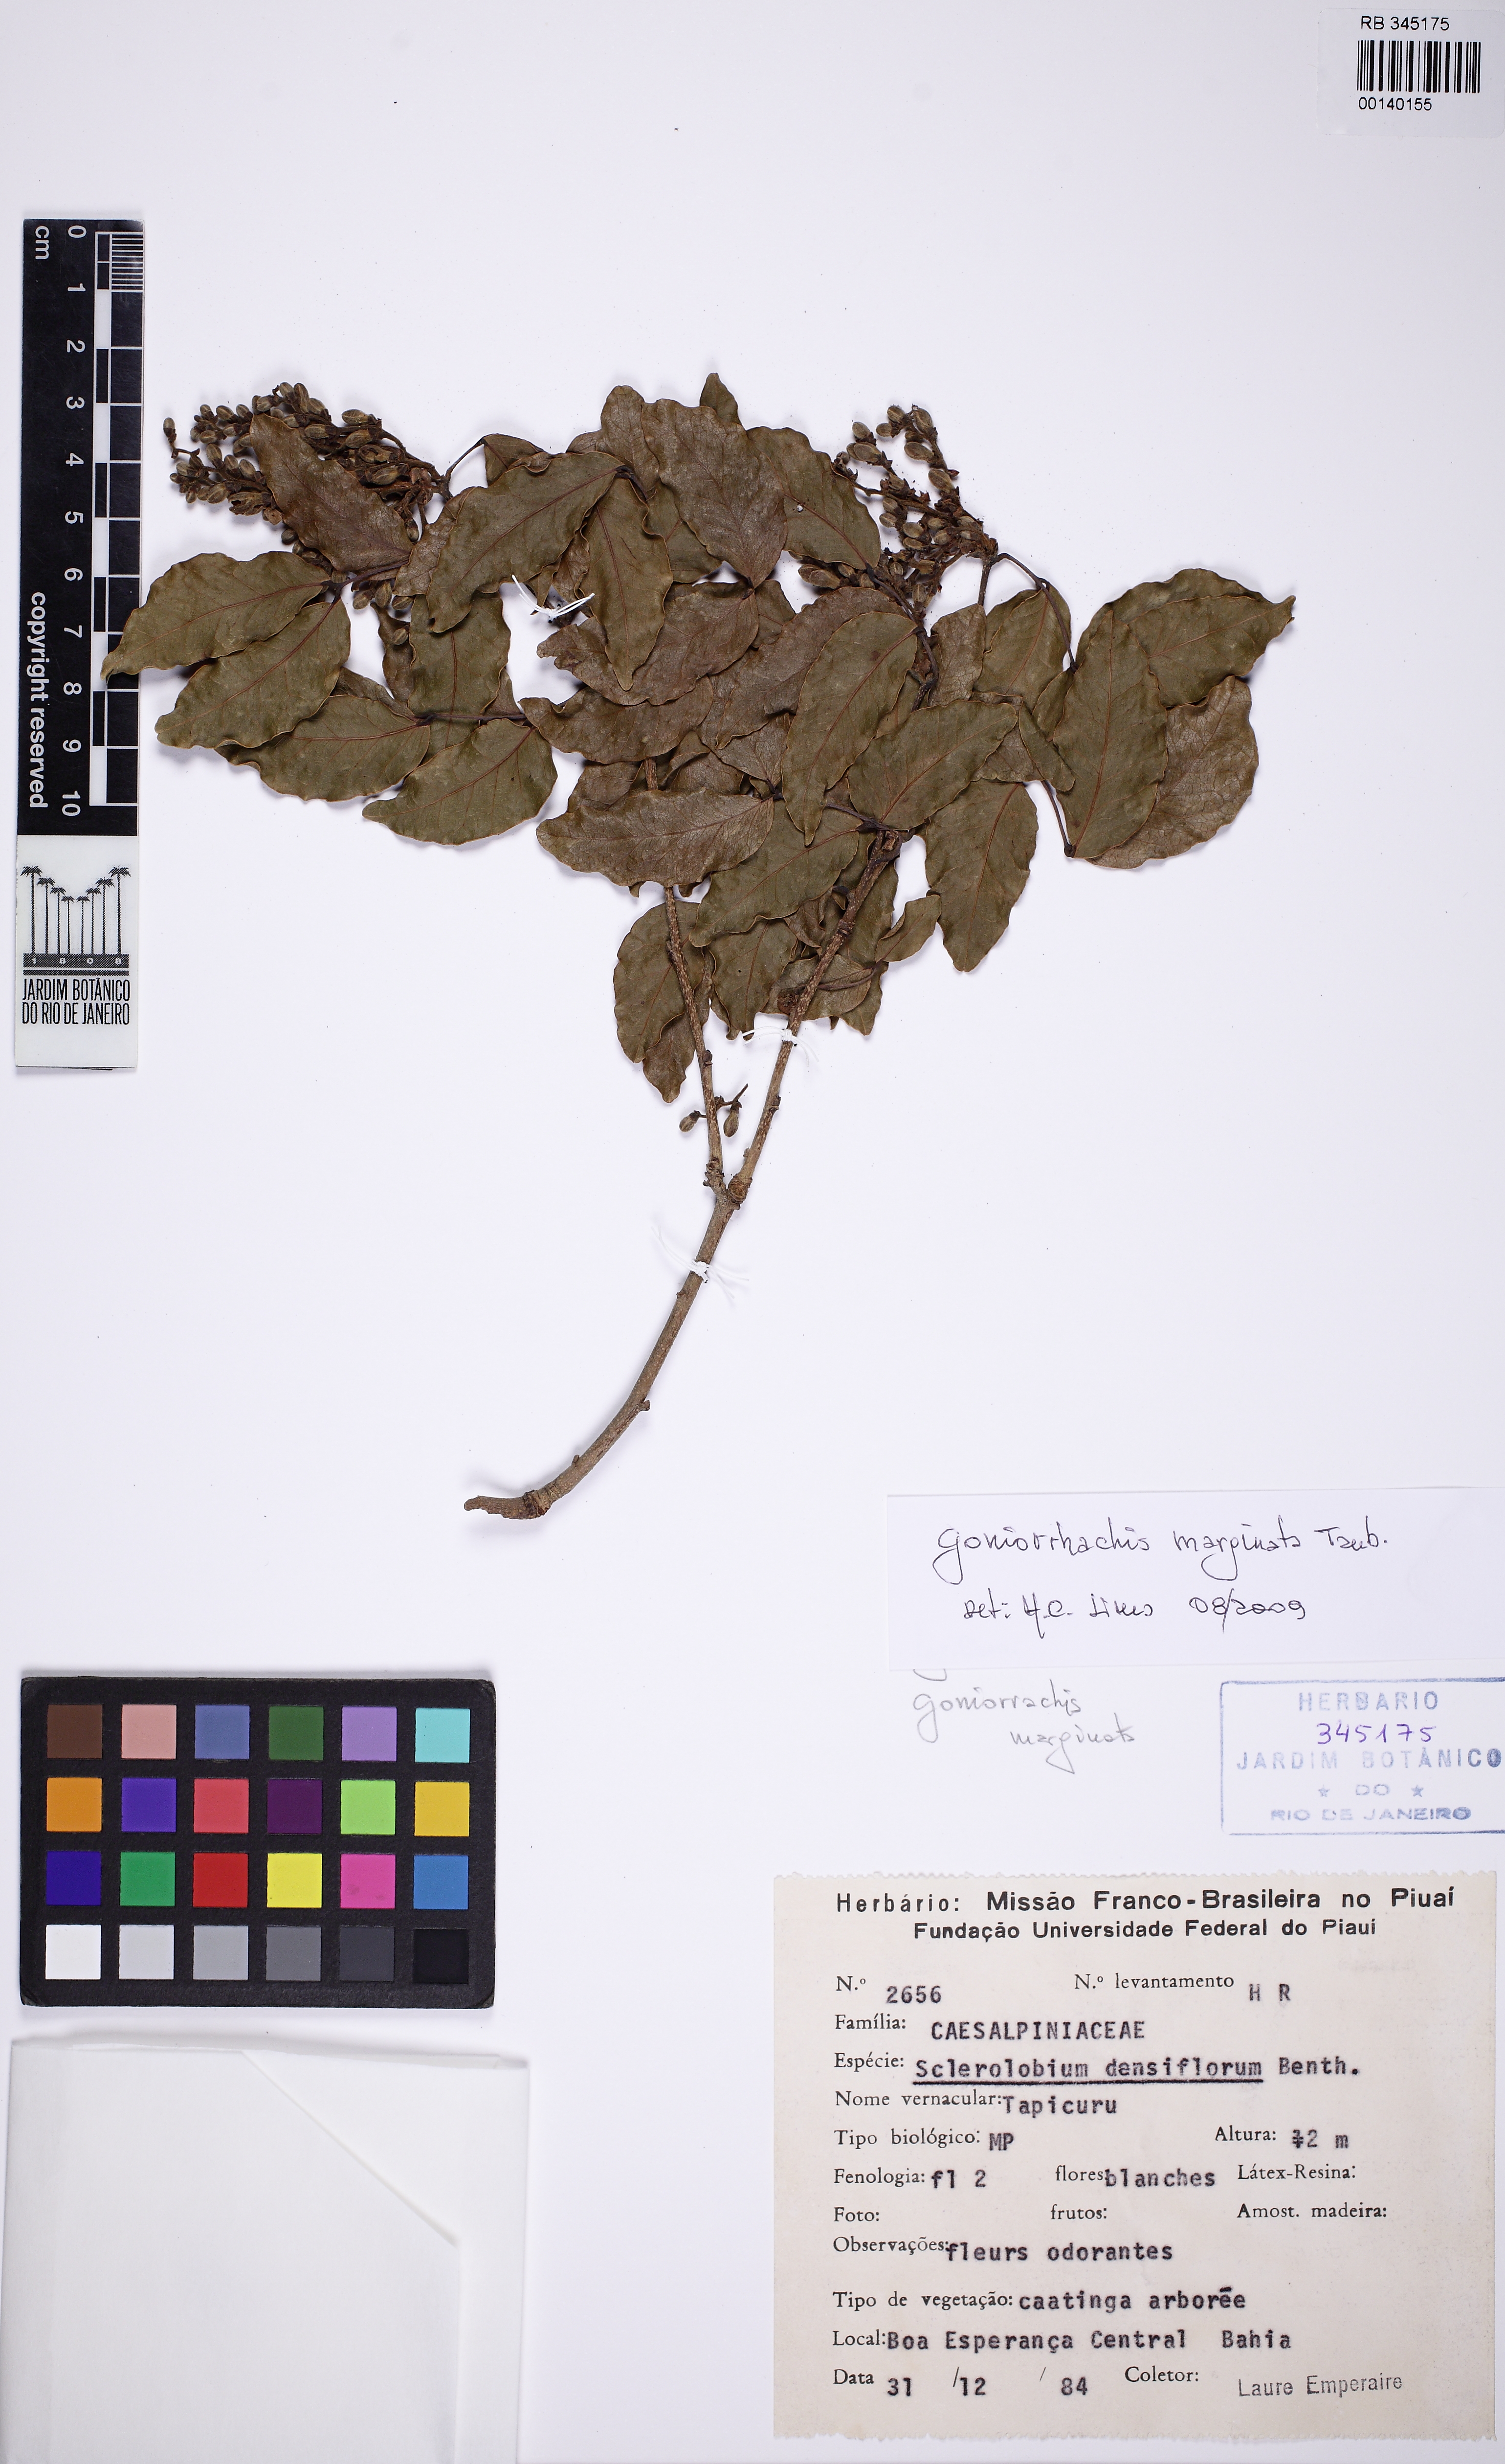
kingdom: Plantae
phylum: Tracheophyta
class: Magnoliopsida
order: Fabales
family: Fabaceae
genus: Tachigali
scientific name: Tachigali densiflora
